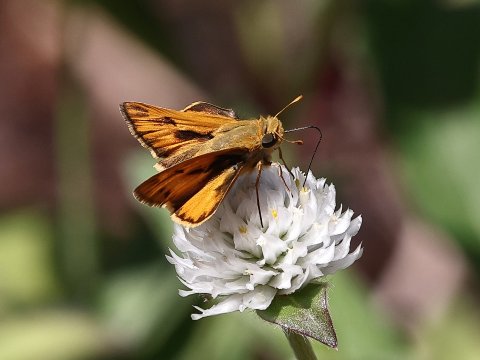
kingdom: Animalia
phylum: Arthropoda
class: Insecta
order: Lepidoptera
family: Hesperiidae
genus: Hylephila
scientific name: Hylephila phyleus
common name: Fiery Skipper
